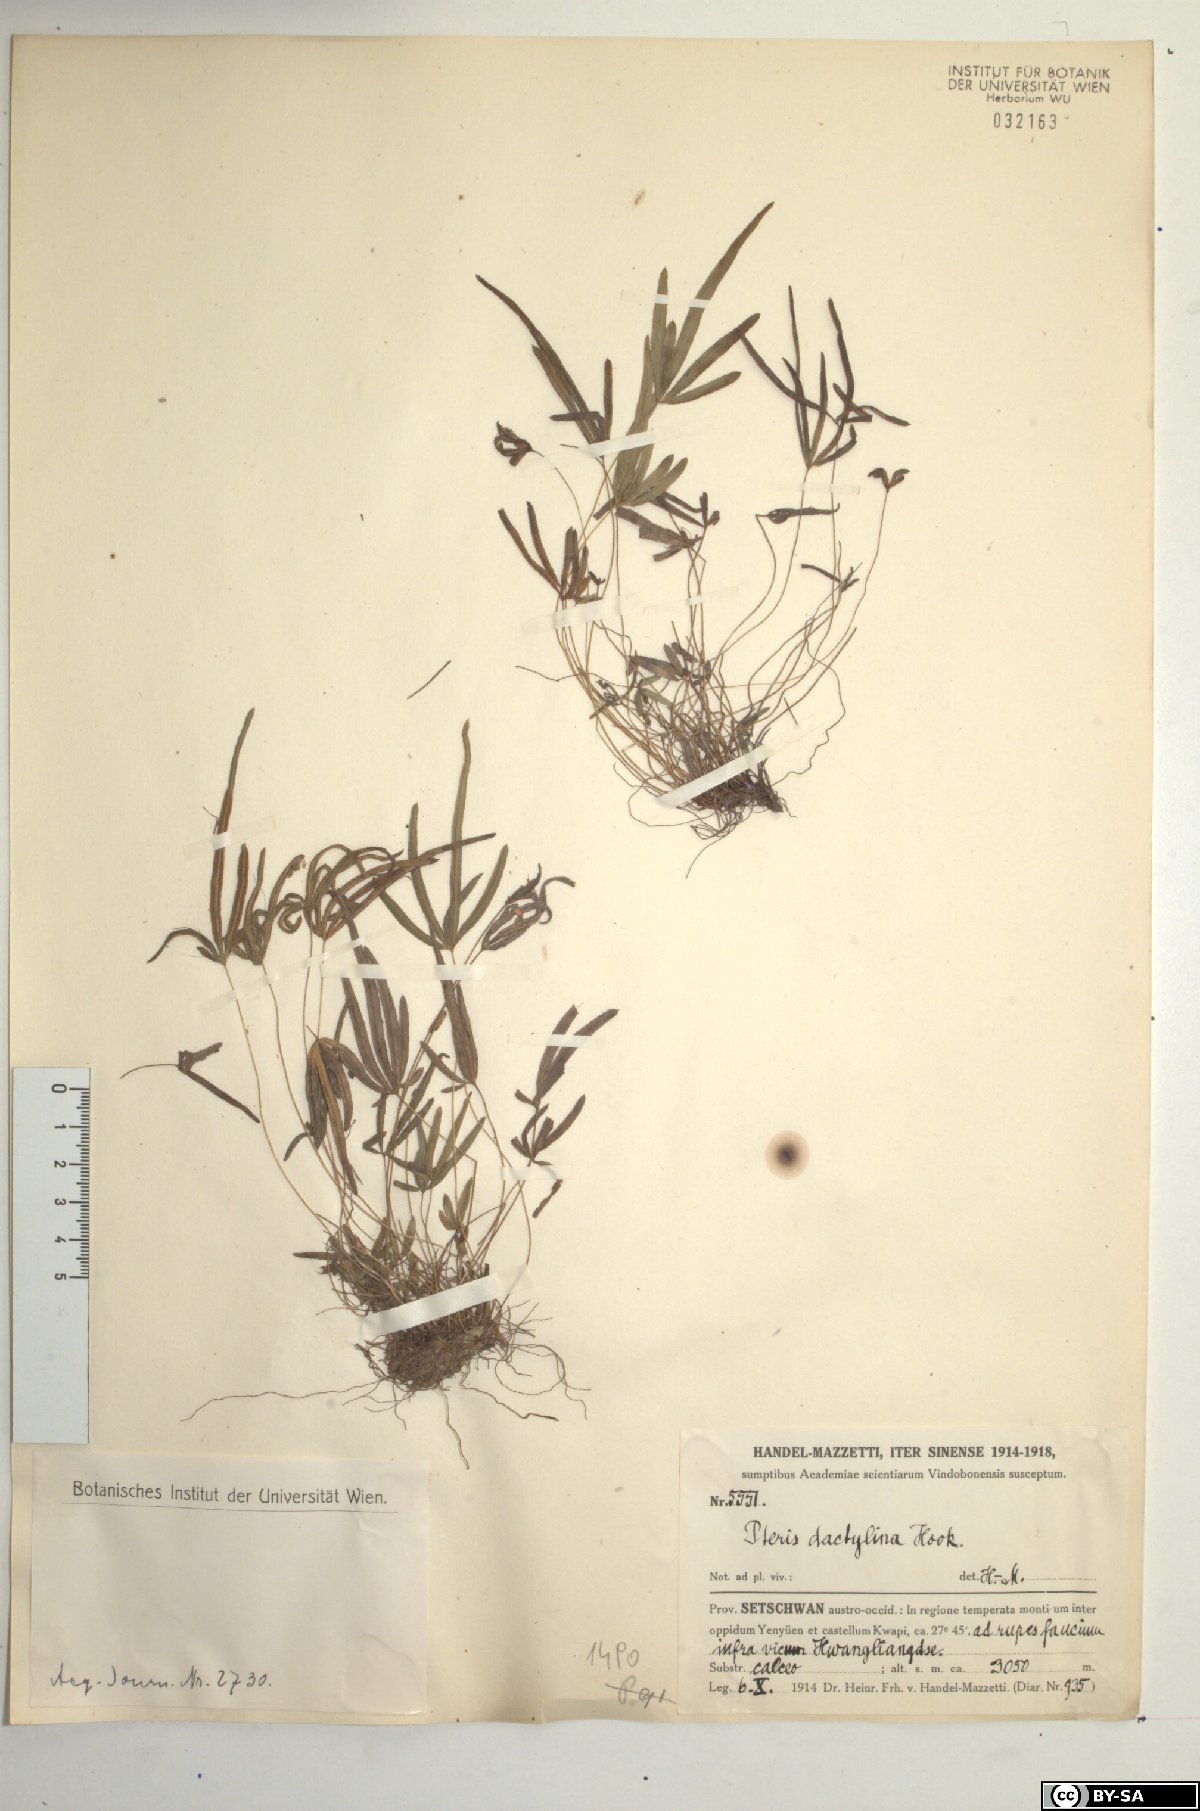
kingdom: Plantae
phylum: Tracheophyta
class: Polypodiopsida
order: Polypodiales
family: Pteridaceae
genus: Pteris
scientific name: Pteris dactylina
